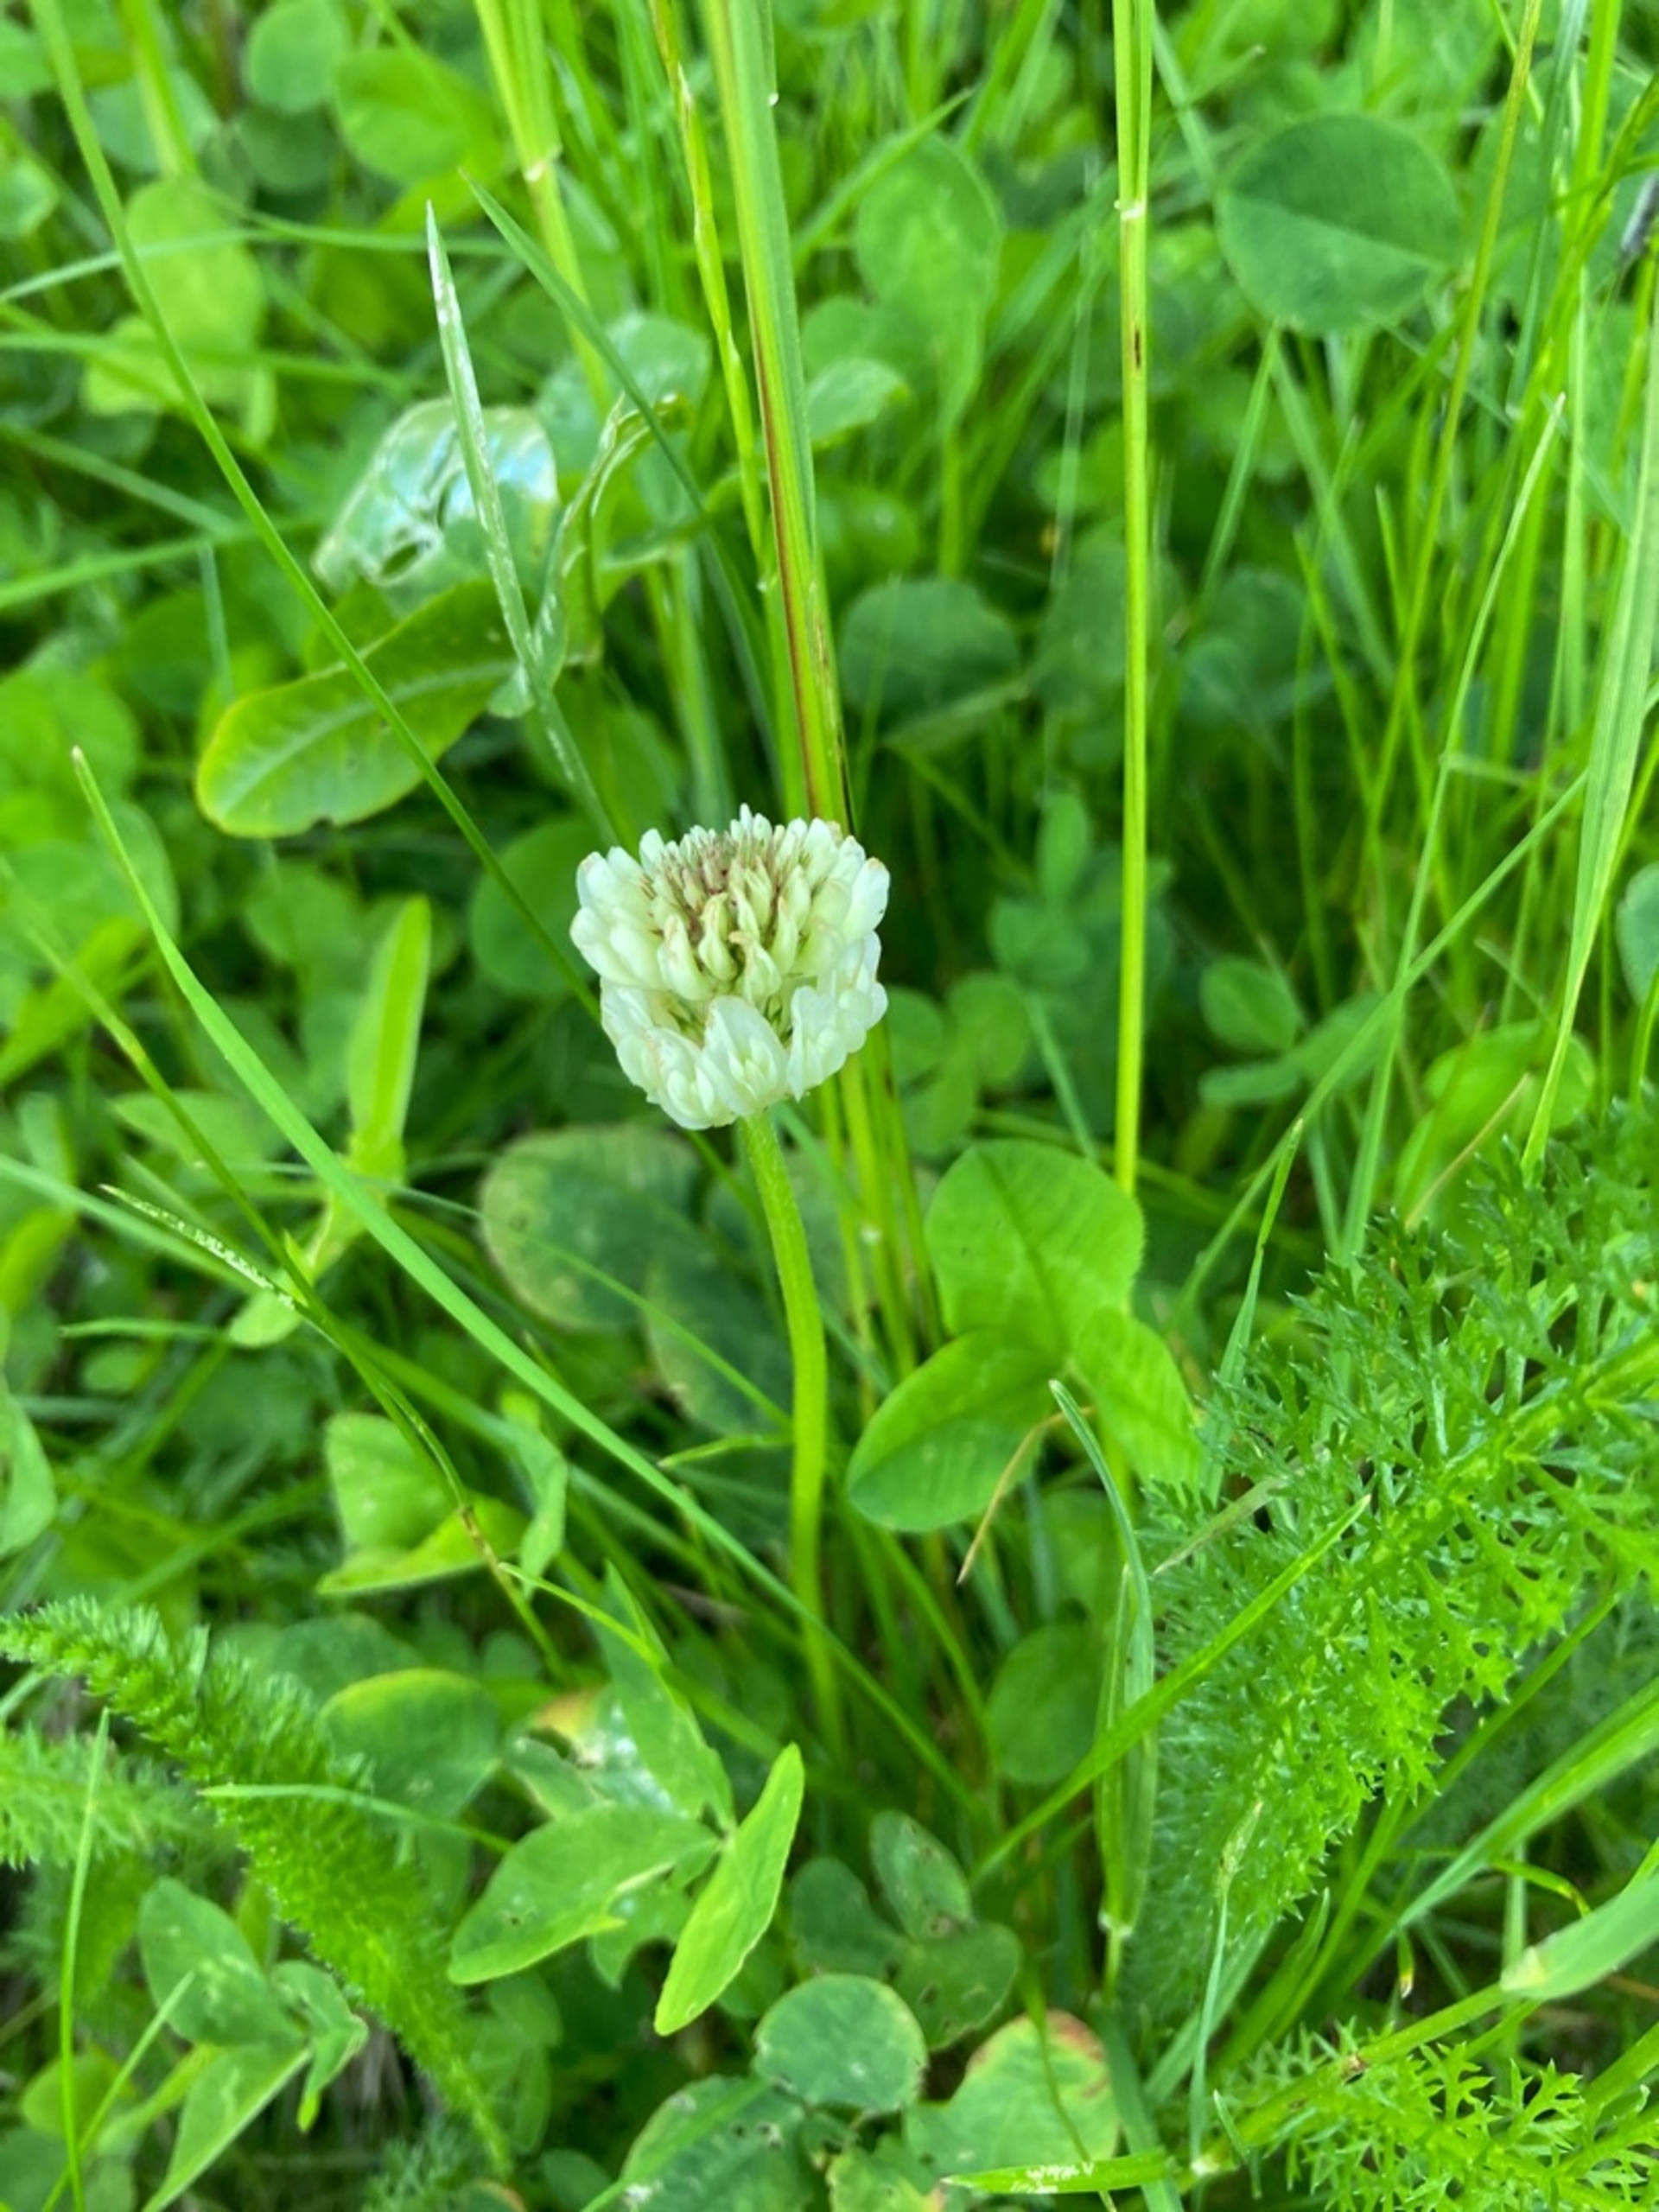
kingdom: Plantae
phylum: Tracheophyta
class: Magnoliopsida
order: Fabales
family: Fabaceae
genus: Trifolium
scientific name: Trifolium repens
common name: Hvid-kløver
